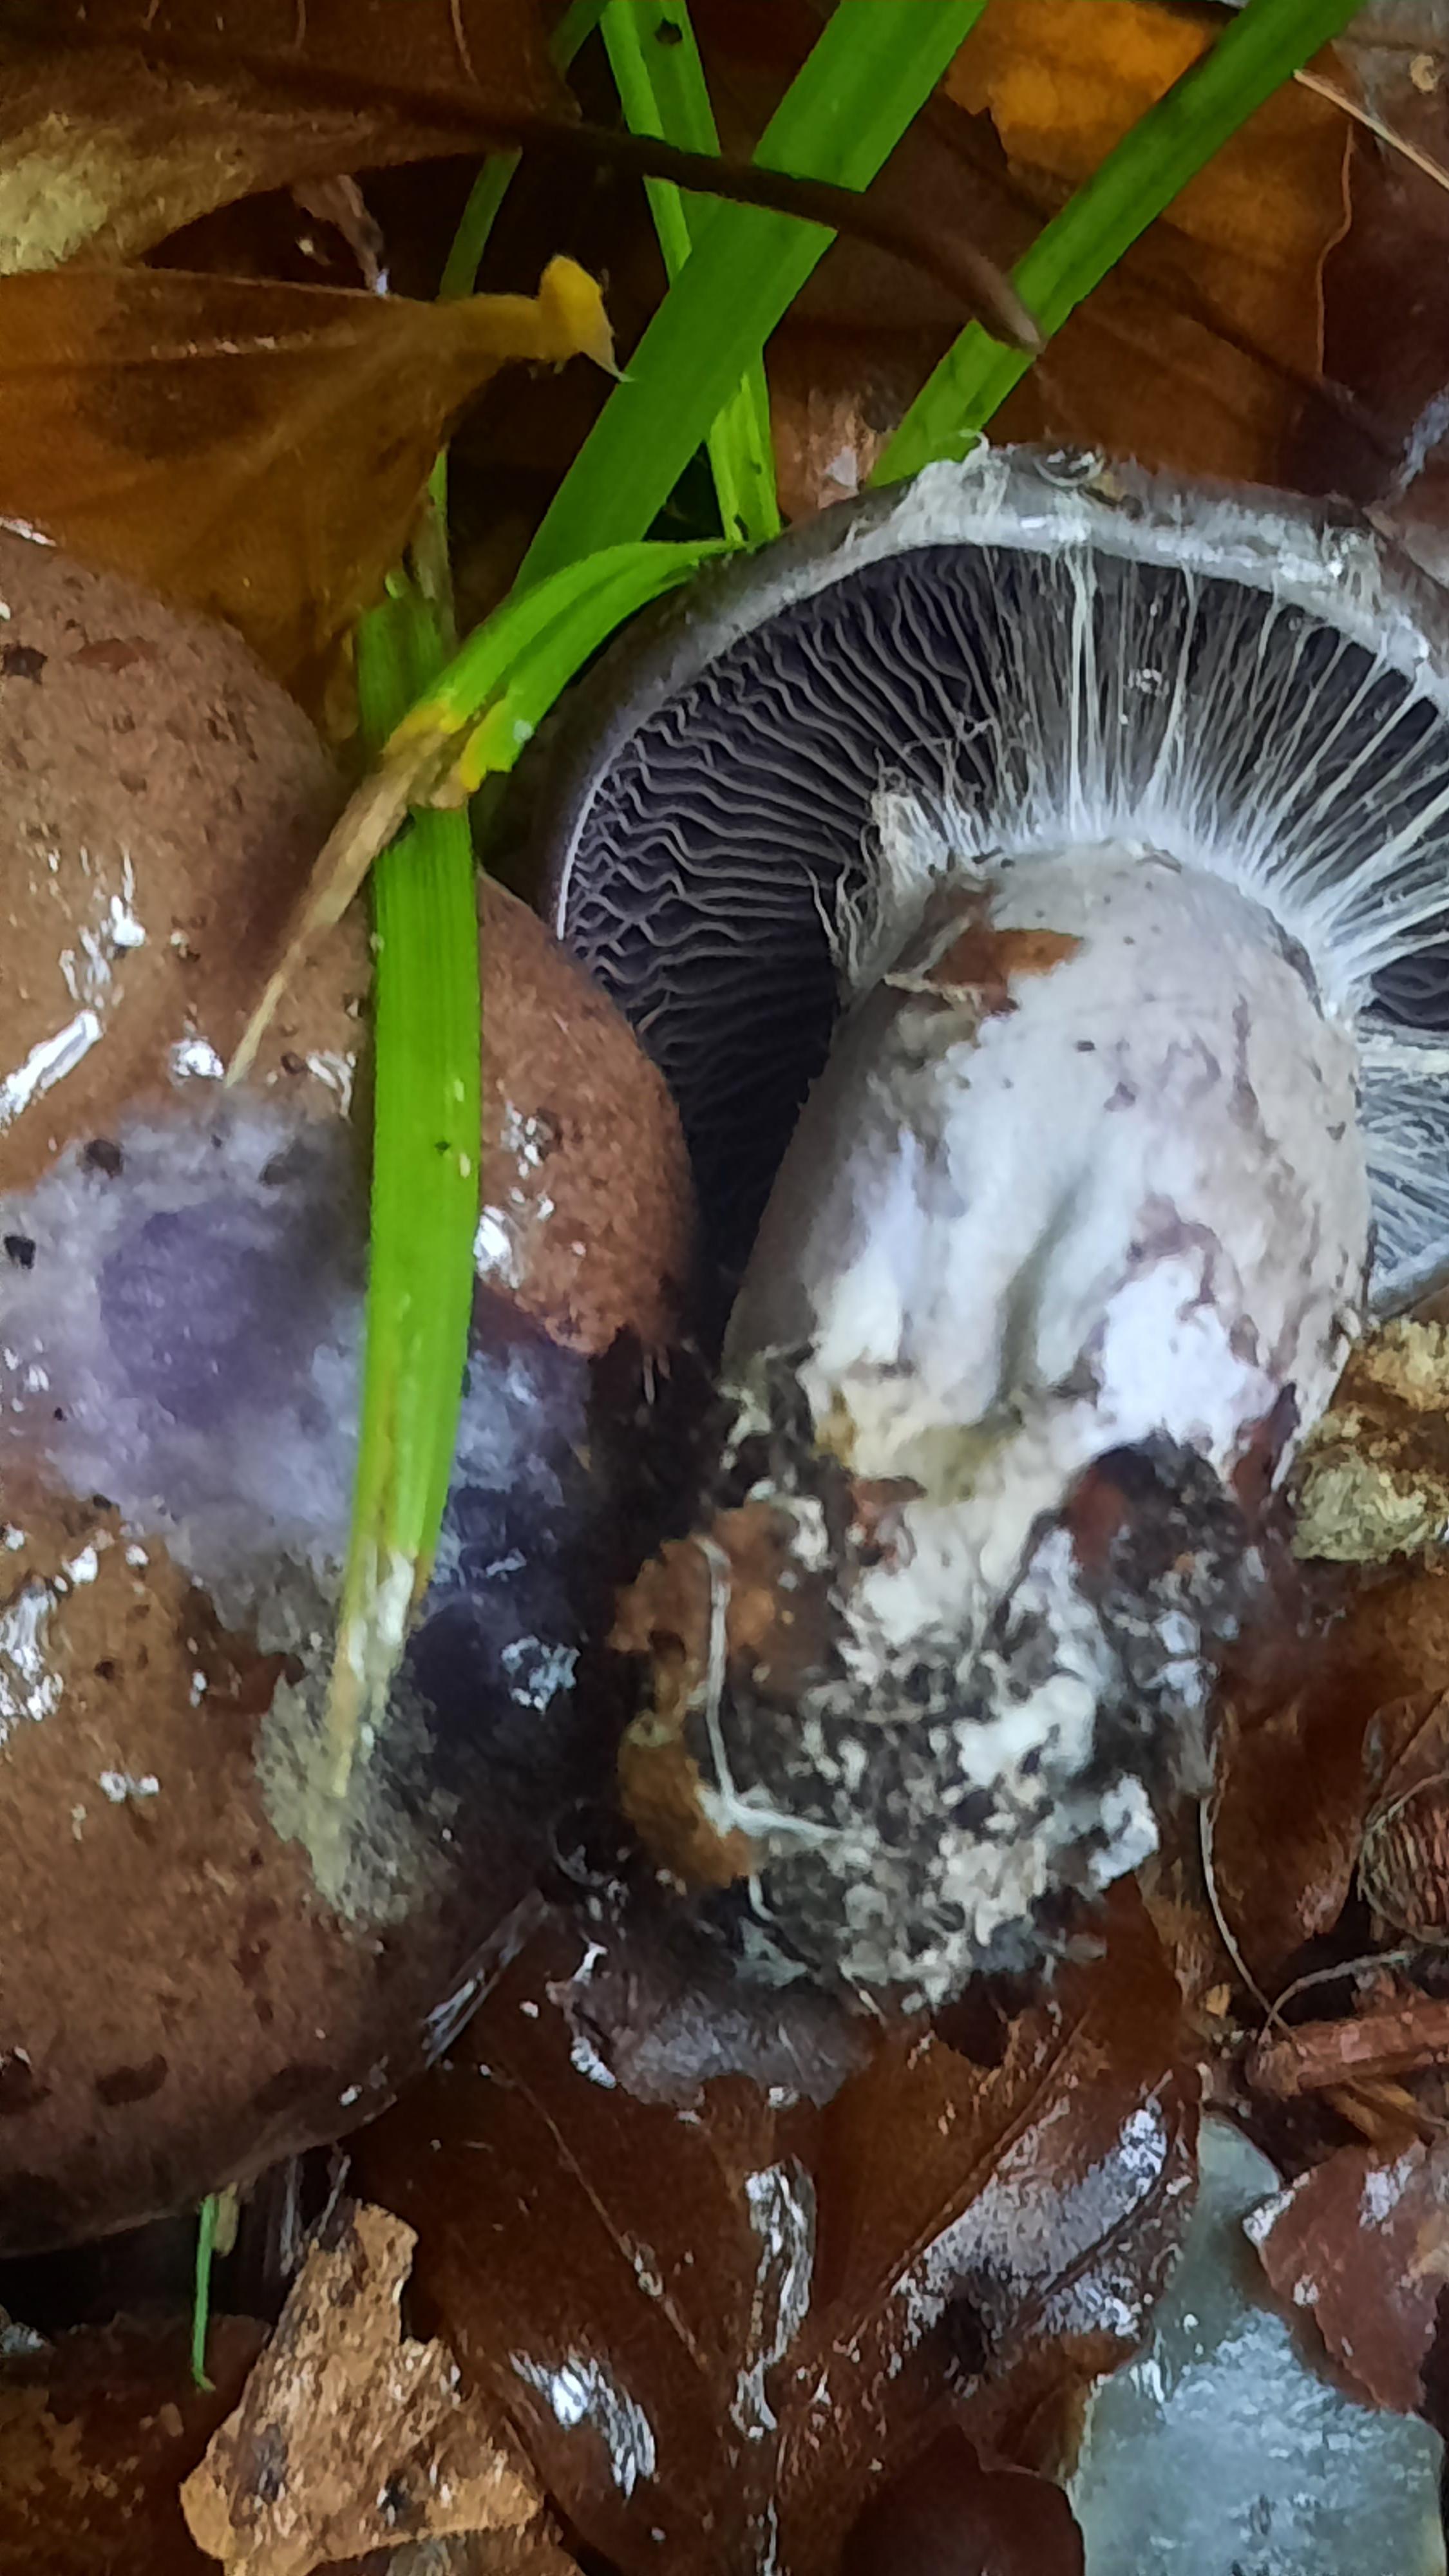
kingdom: Fungi
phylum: Basidiomycota
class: Agaricomycetes
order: Agaricales
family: Cortinariaceae
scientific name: Cortinariaceae
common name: slørhatfamilien
